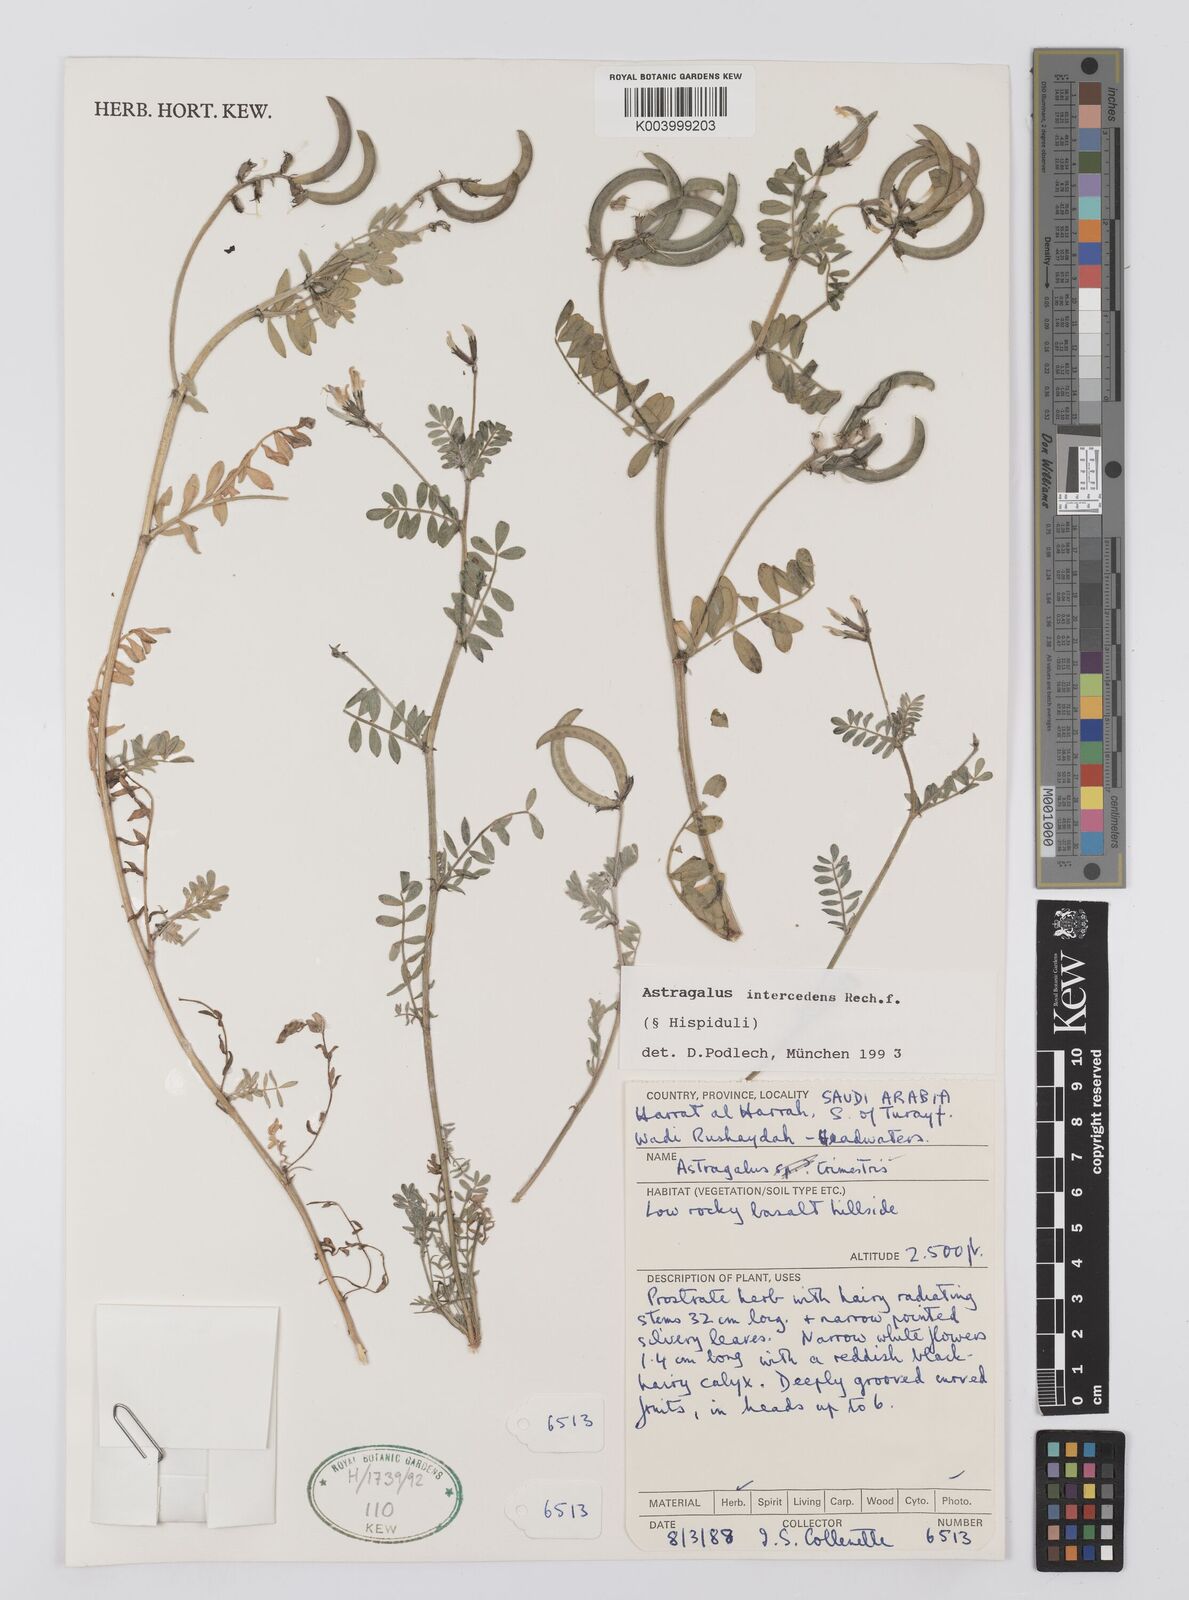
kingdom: Plantae
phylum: Tracheophyta
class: Magnoliopsida
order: Fabales
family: Fabaceae
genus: Astragalus
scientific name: Astragalus intercedens
